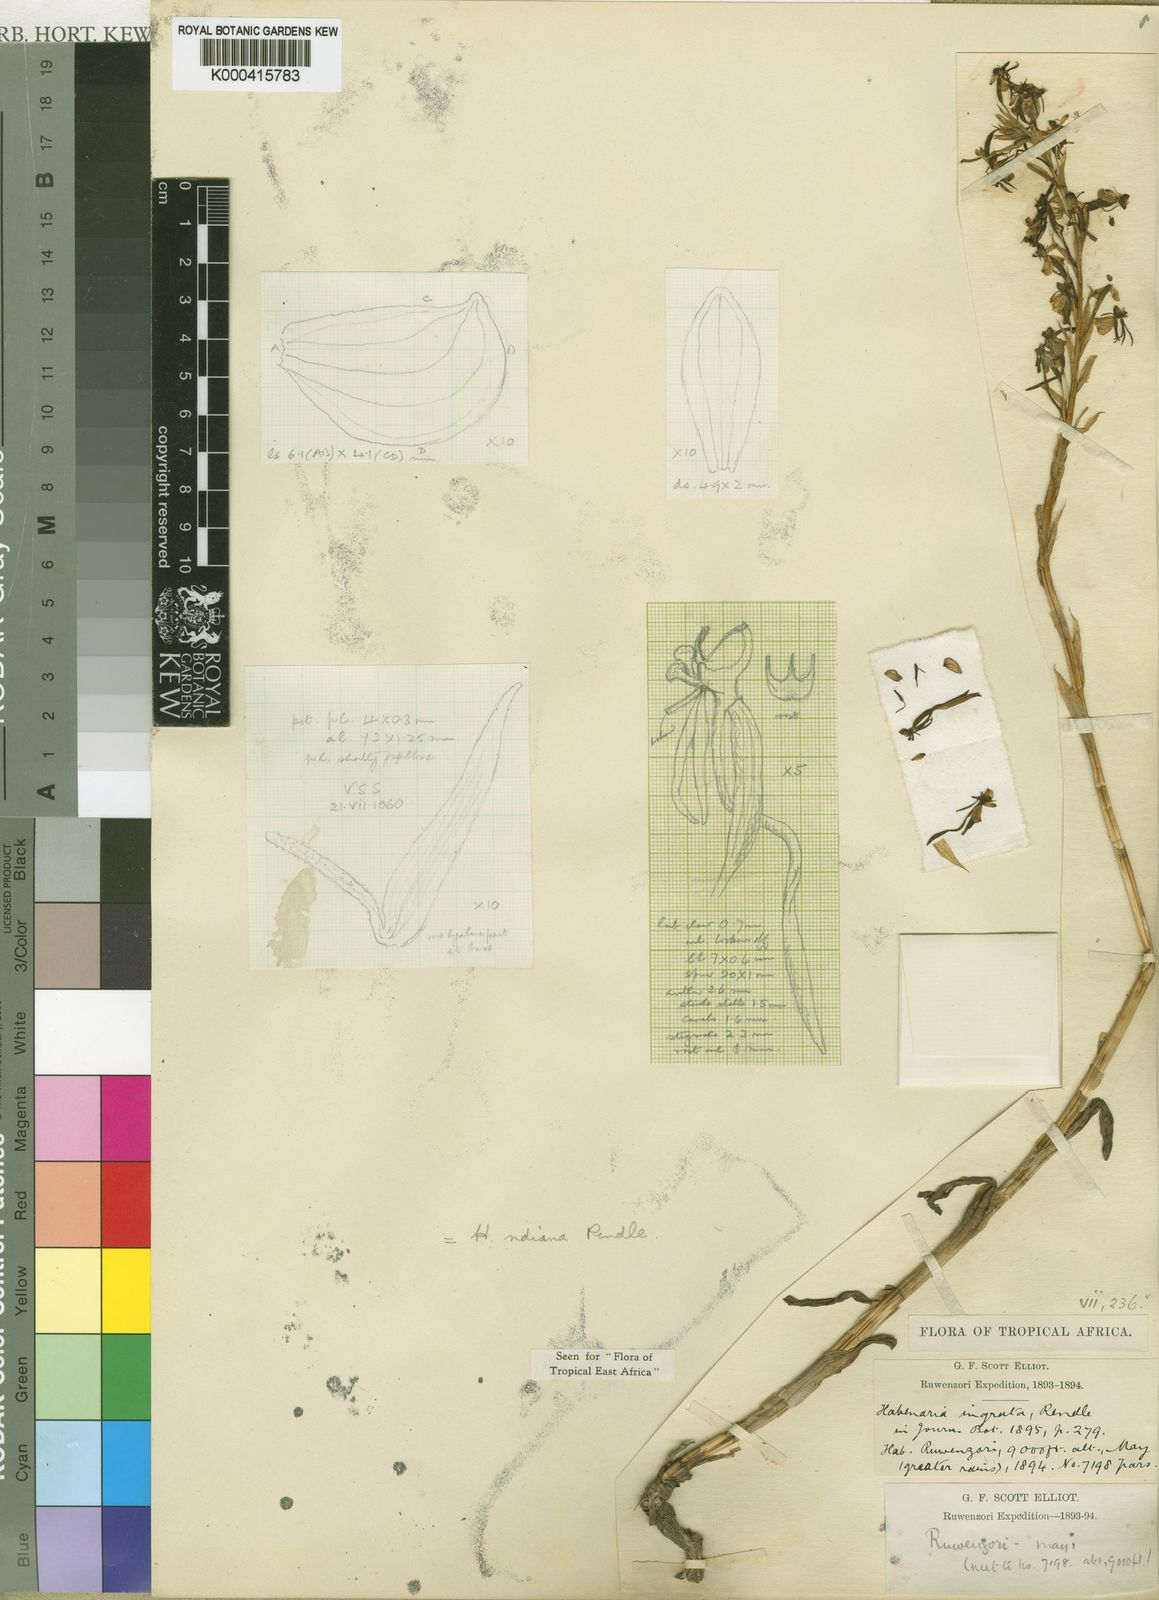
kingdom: Plantae
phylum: Tracheophyta
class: Liliopsida
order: Asparagales
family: Orchidaceae
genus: Habenaria
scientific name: Habenaria ndiana
